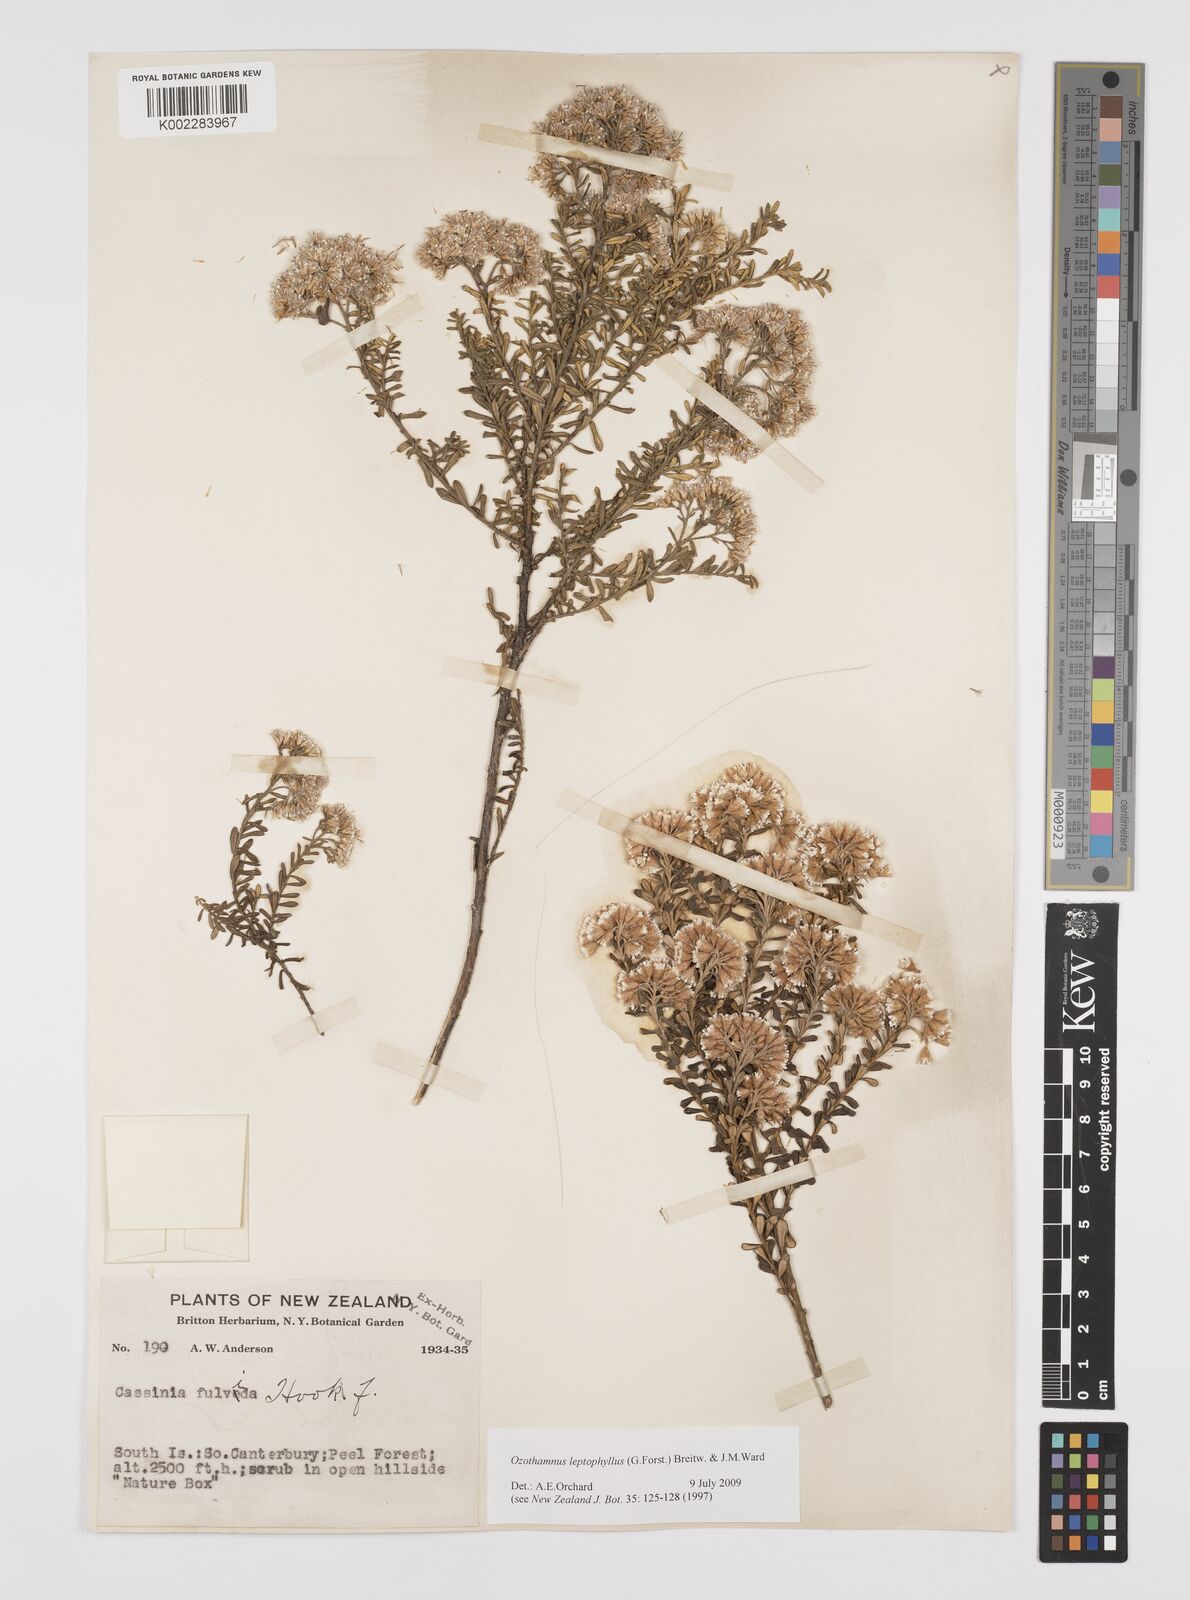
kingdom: Plantae
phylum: Tracheophyta
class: Magnoliopsida
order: Asterales
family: Asteraceae
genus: Ozothamnus
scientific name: Ozothamnus leptophyllus
